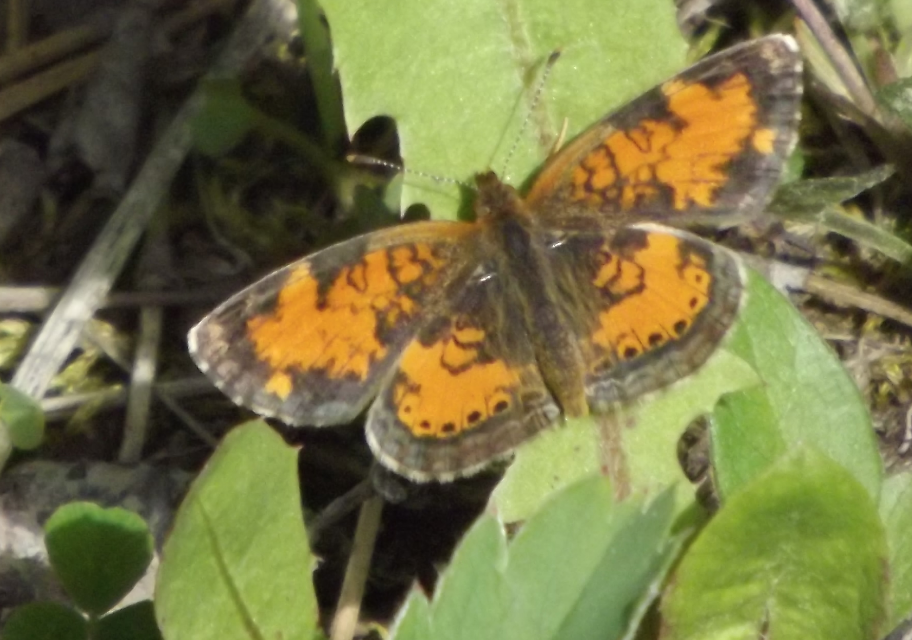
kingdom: Animalia
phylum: Arthropoda
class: Insecta
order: Lepidoptera
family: Nymphalidae
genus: Phyciodes
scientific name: Phyciodes tharos
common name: Northern Crescent
